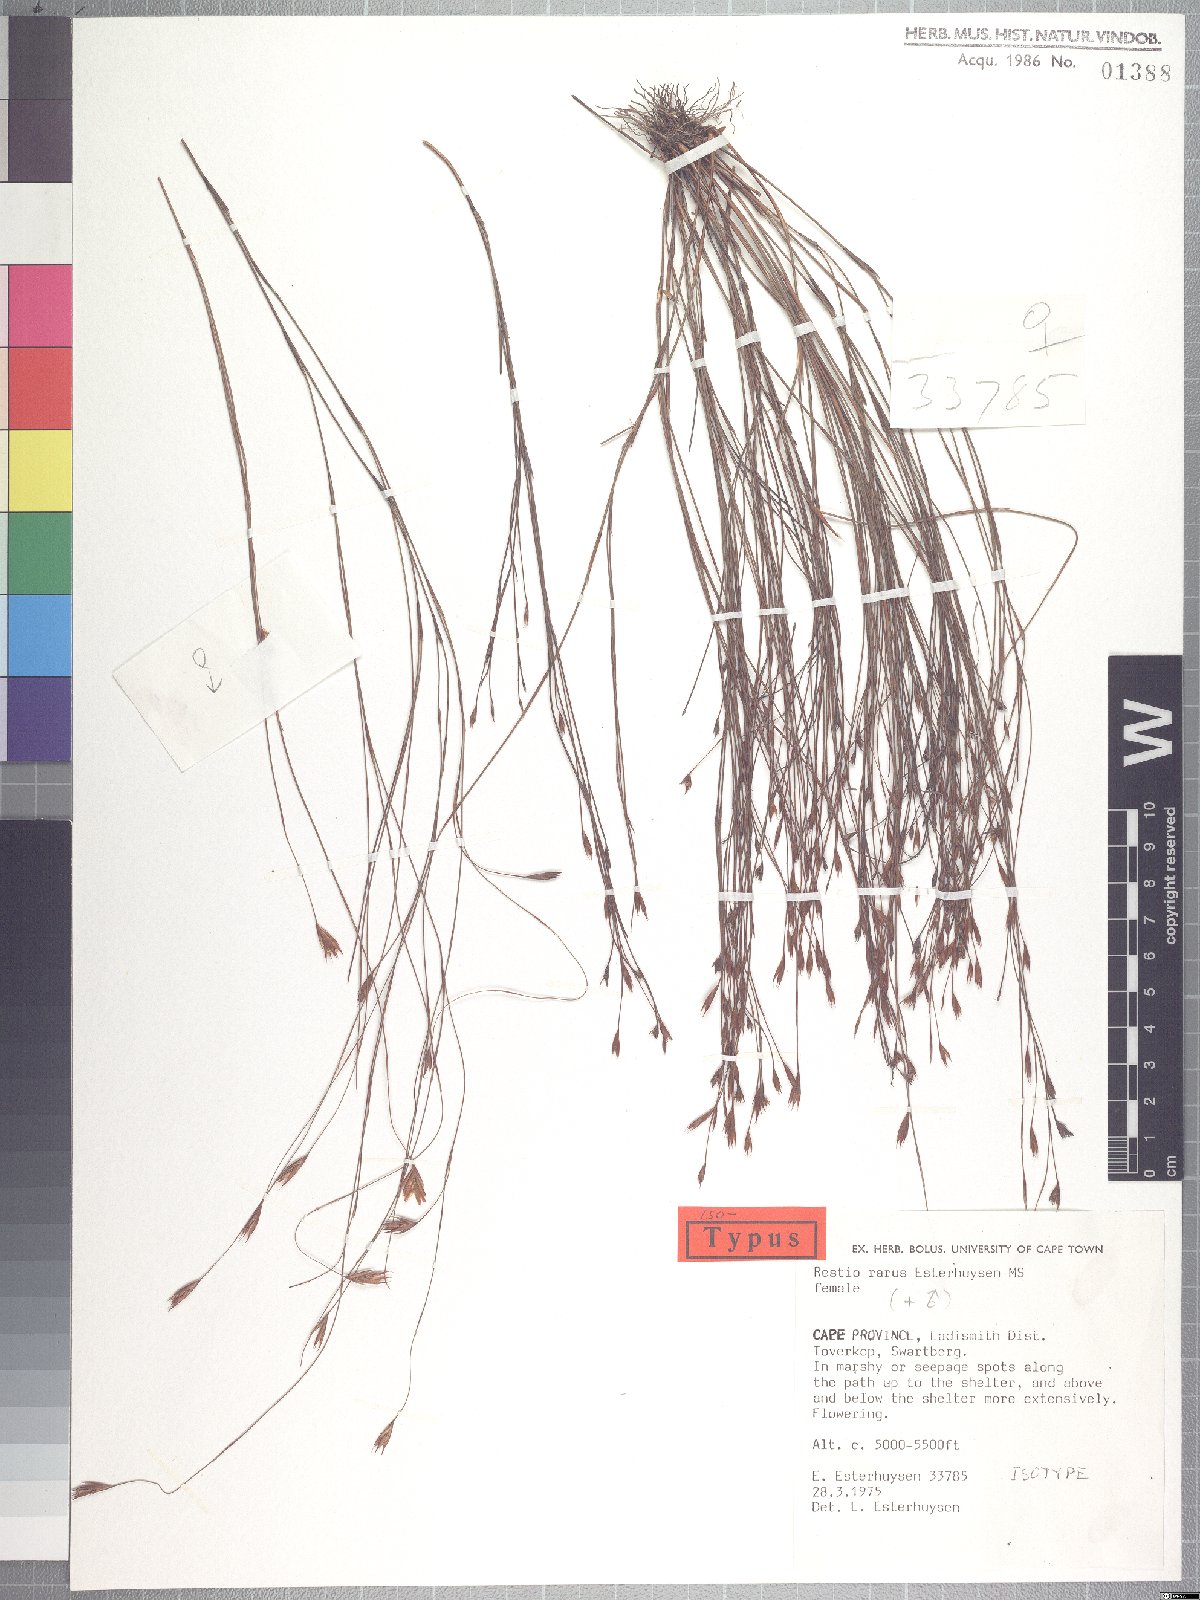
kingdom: Plantae
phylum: Tracheophyta
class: Liliopsida
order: Poales
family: Restionaceae
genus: Restio
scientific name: Restio rarus
